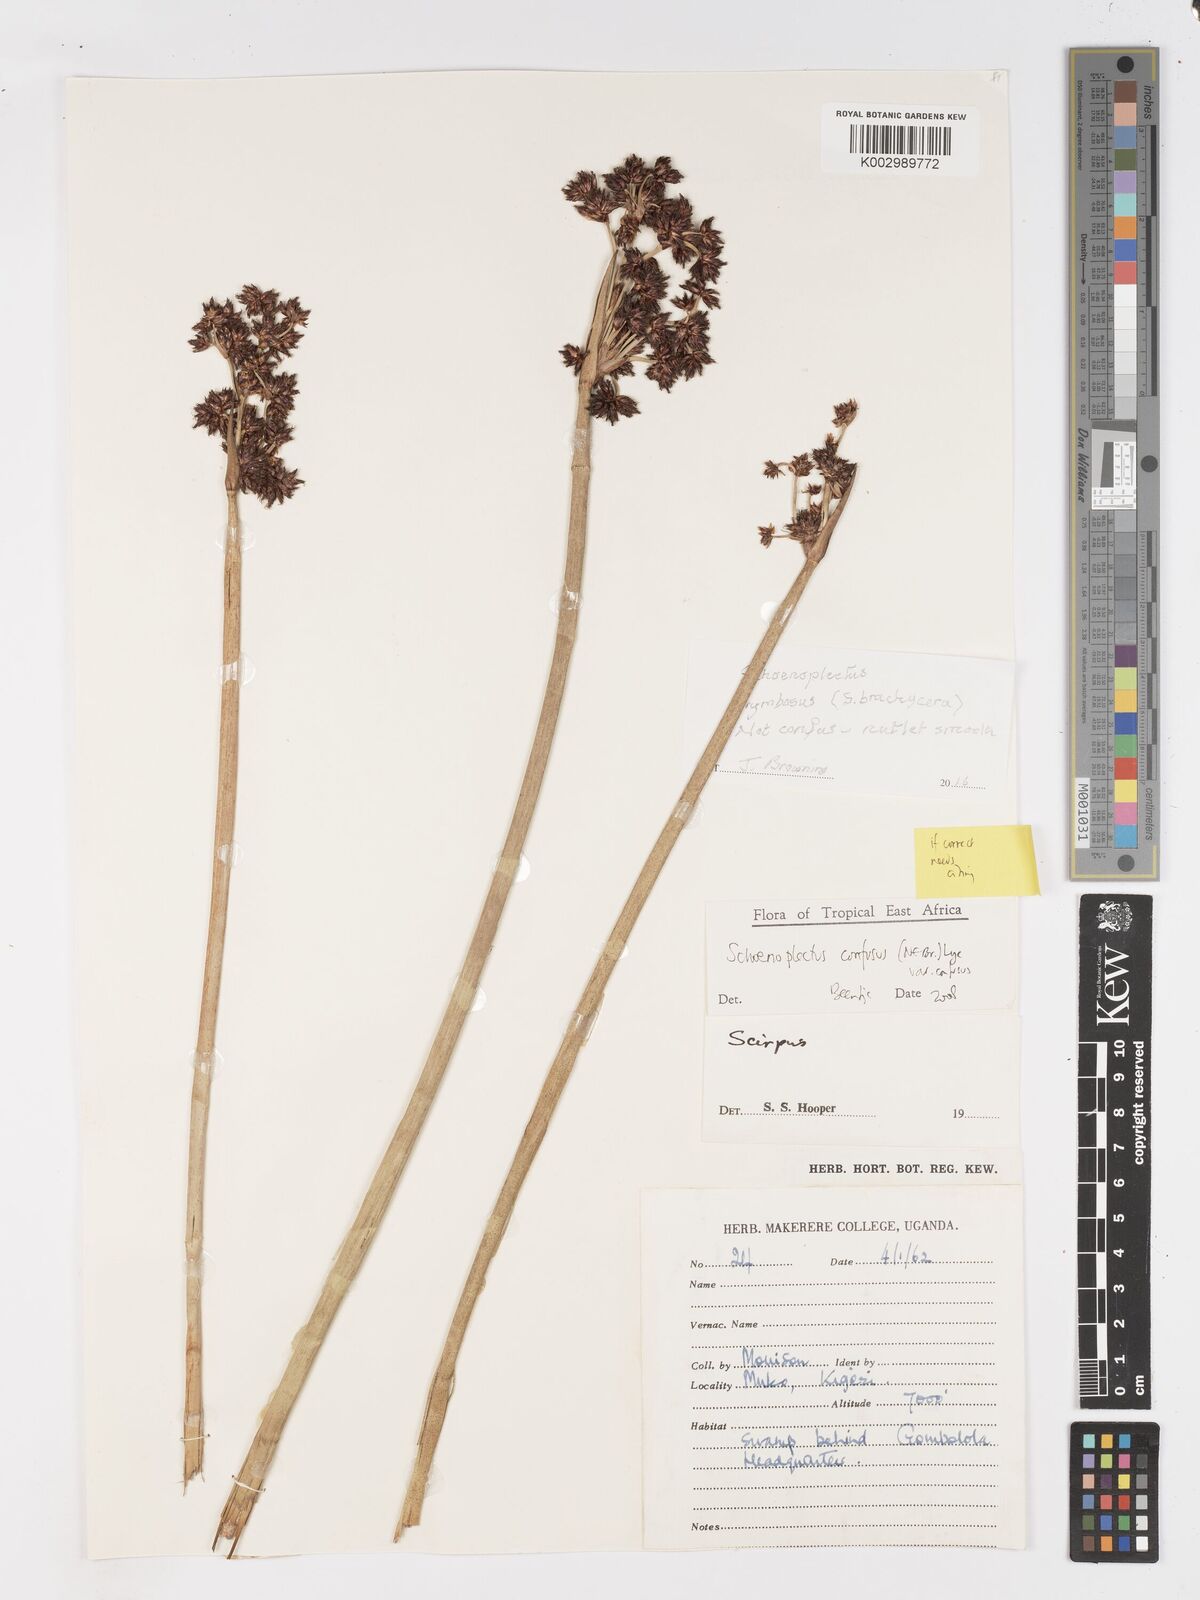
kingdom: Plantae
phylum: Tracheophyta
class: Liliopsida
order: Poales
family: Cyperaceae
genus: Schoenoplectiella
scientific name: Schoenoplectiella brachyceras
